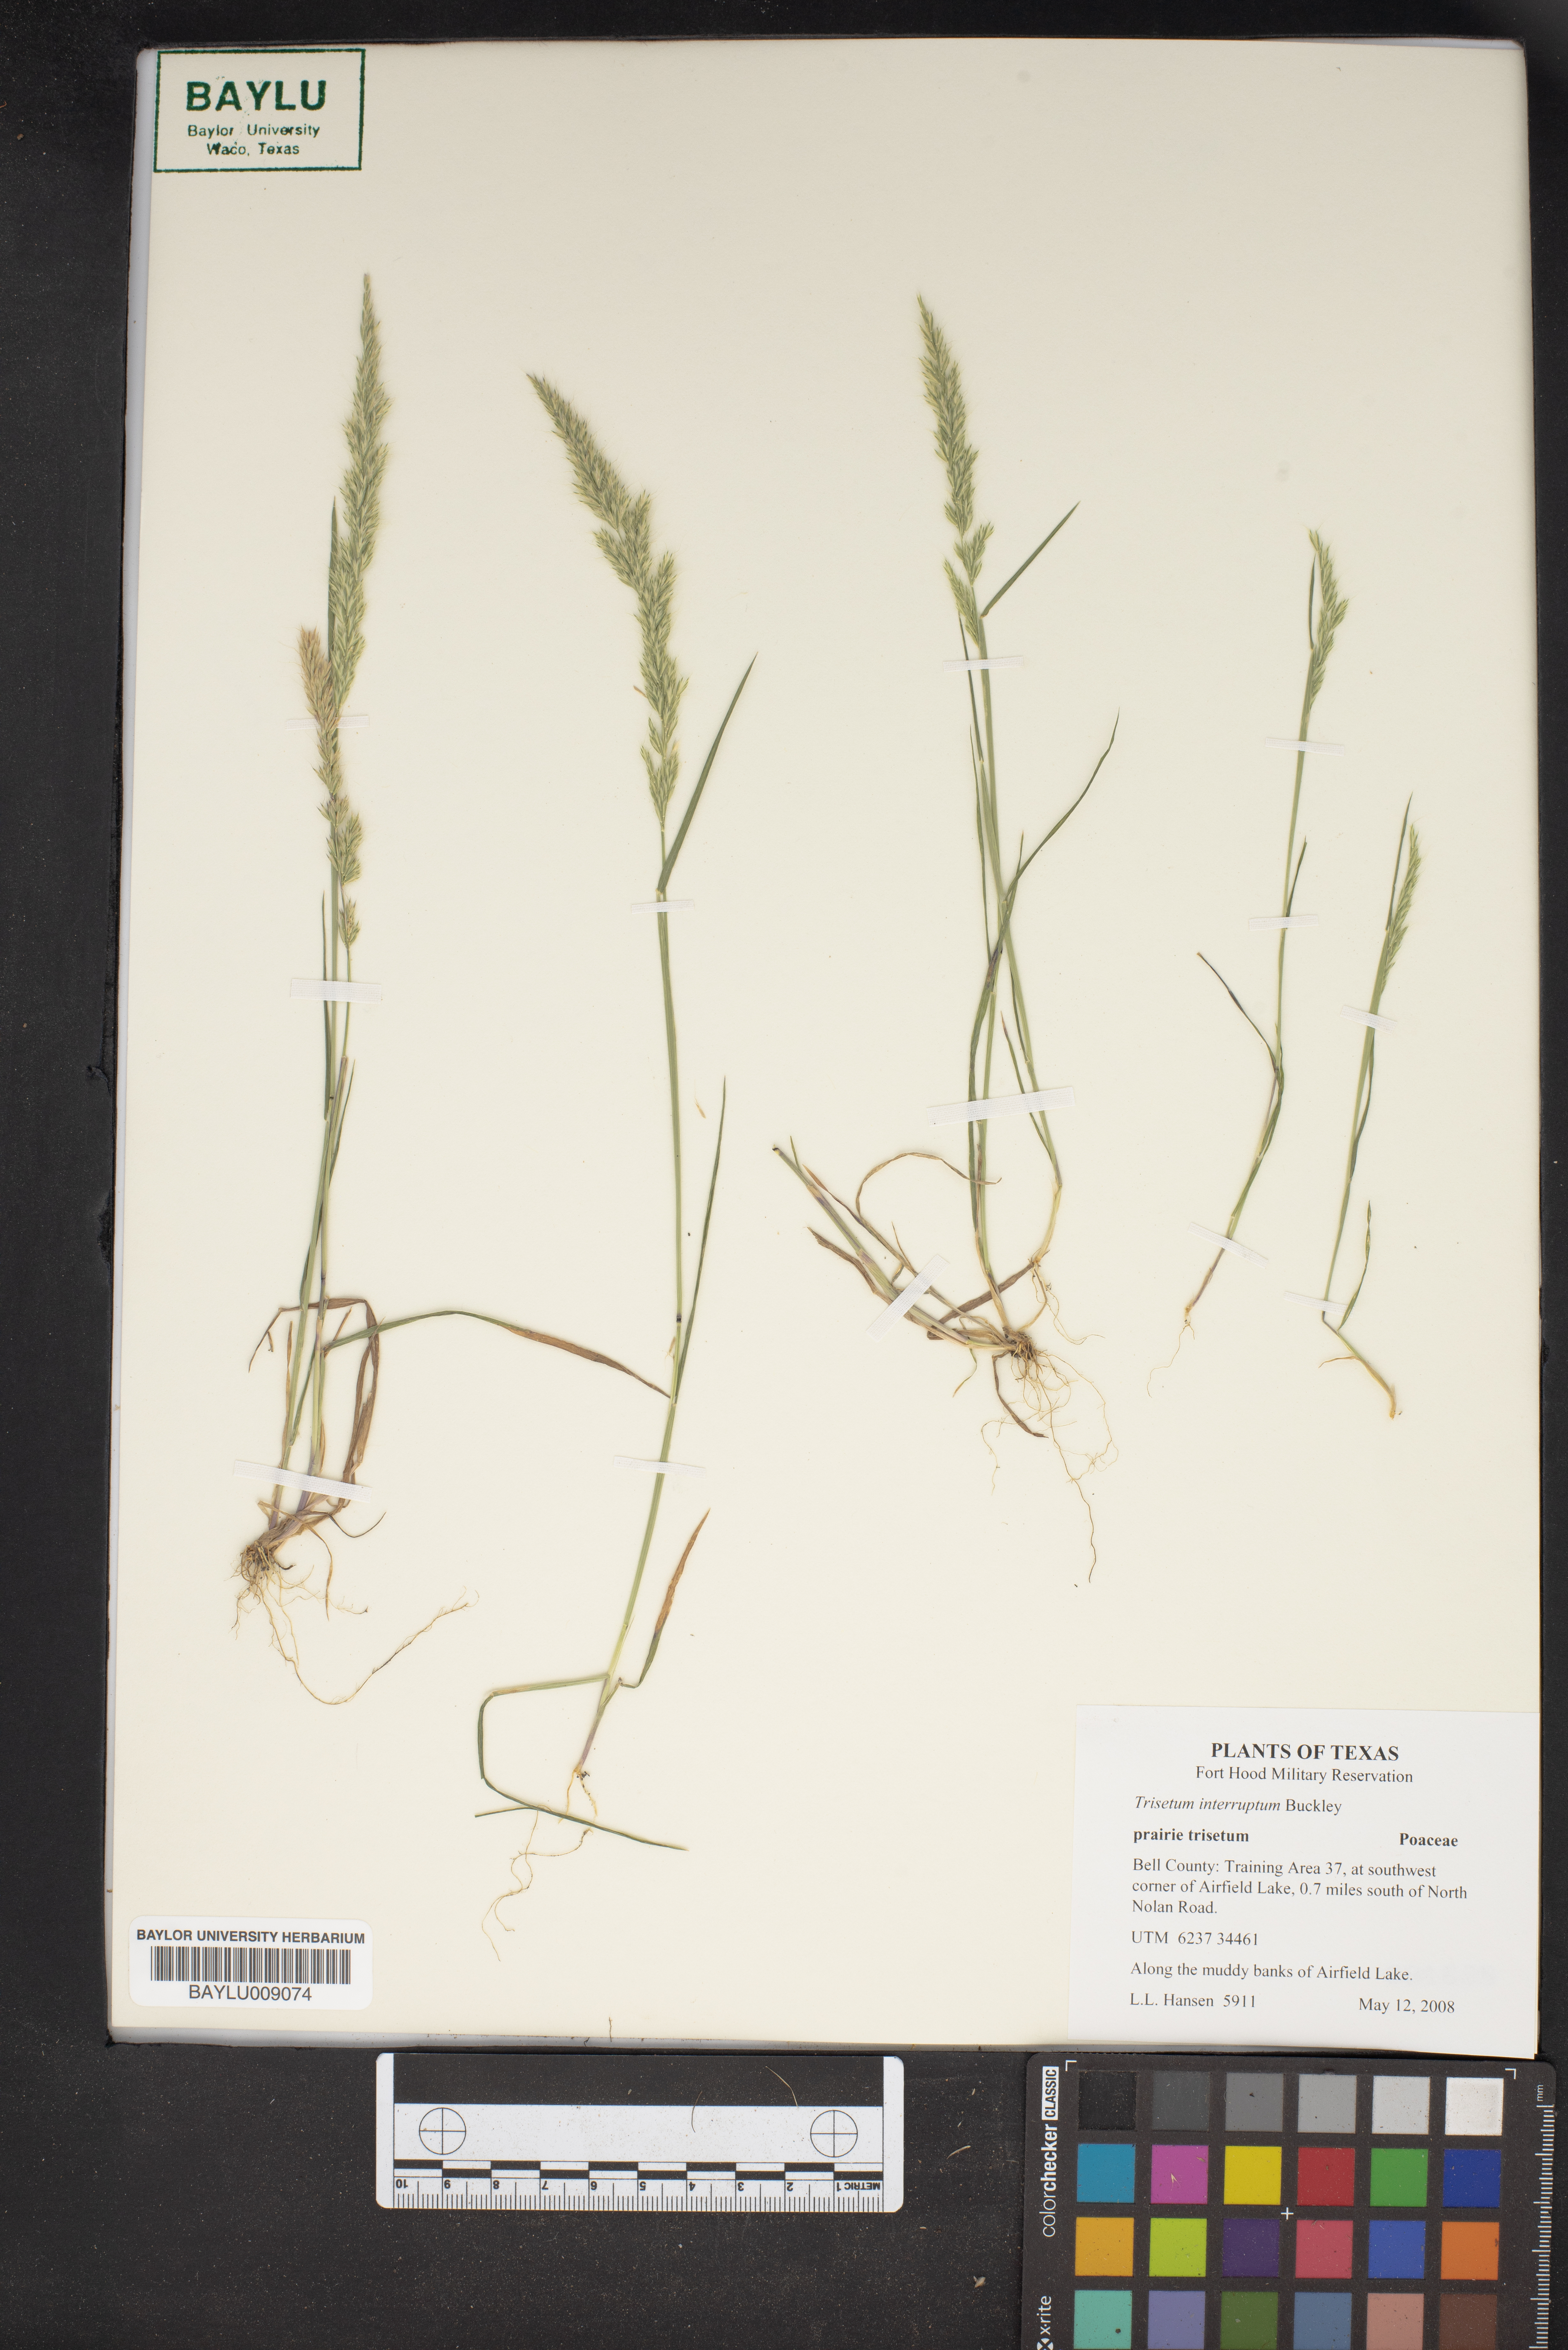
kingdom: Plantae
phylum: Tracheophyta
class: Liliopsida
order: Poales
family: Poaceae
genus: Sphenopholis
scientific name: Sphenopholis interrupta
